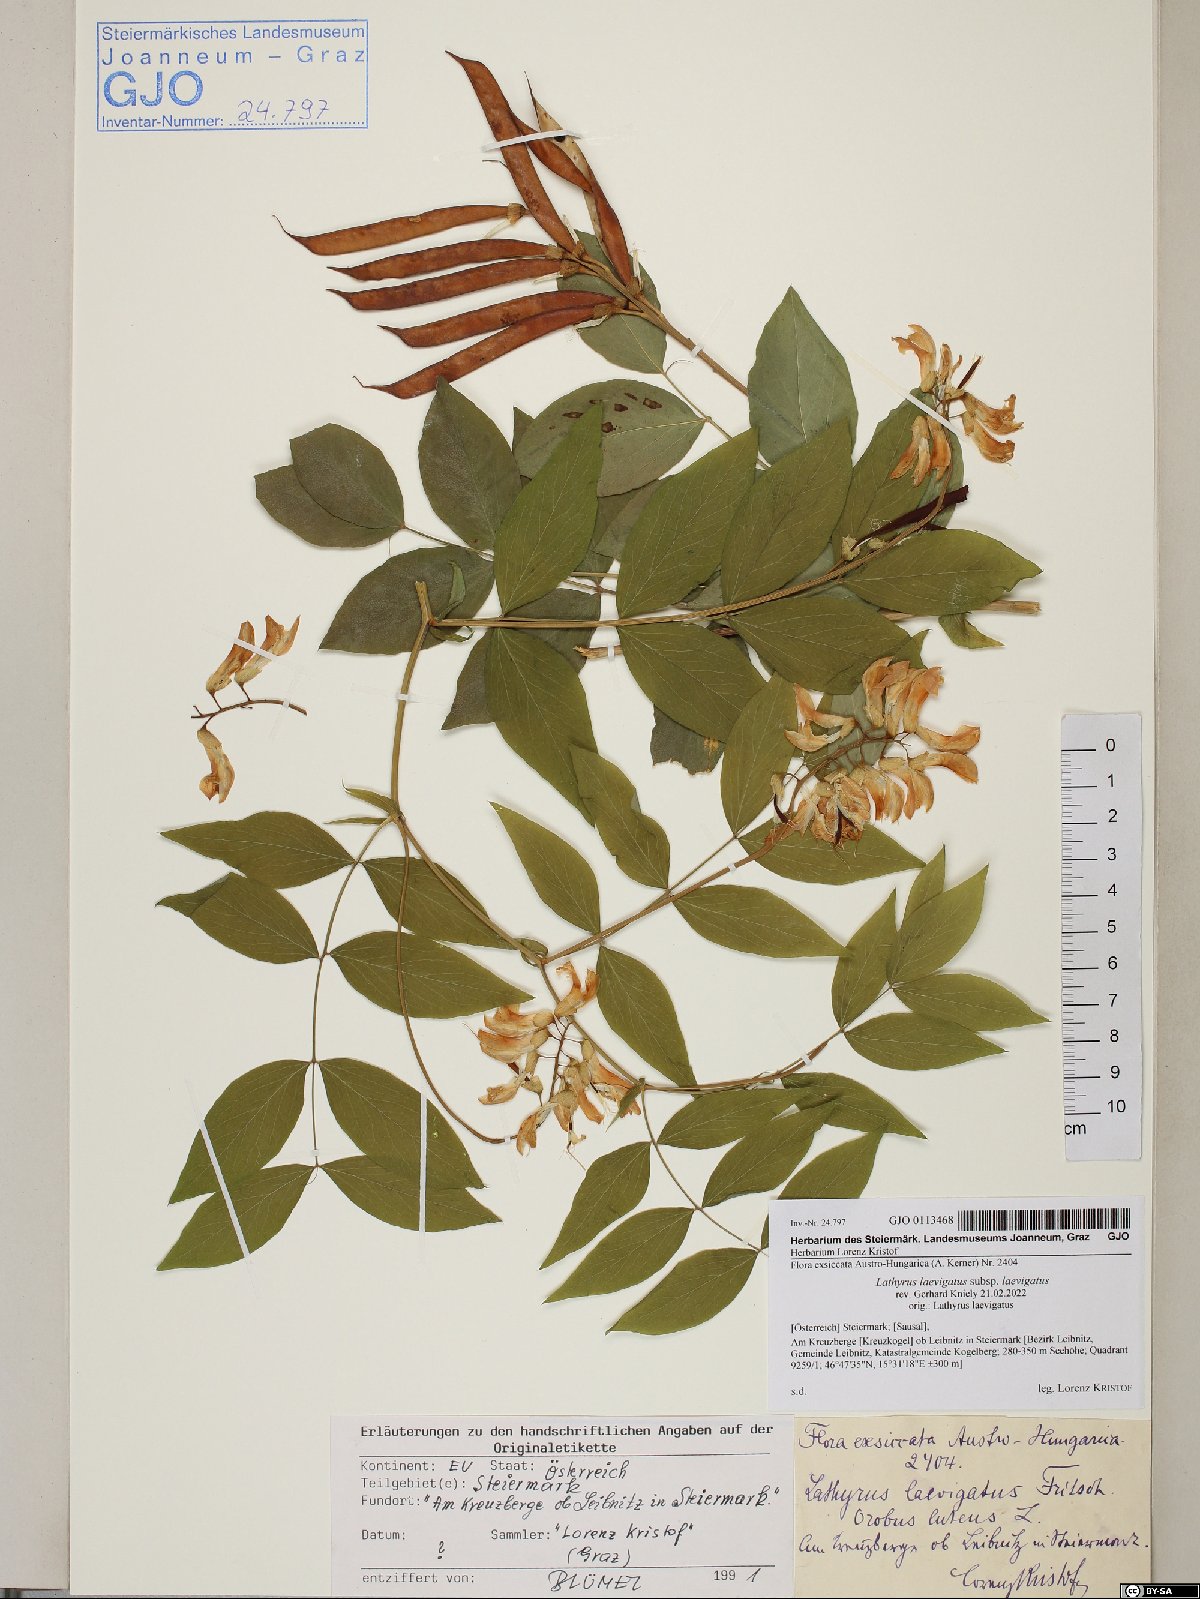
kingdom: Plantae
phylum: Tracheophyta
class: Magnoliopsida
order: Fabales
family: Fabaceae
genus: Lathyrus
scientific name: Lathyrus laevigatus
